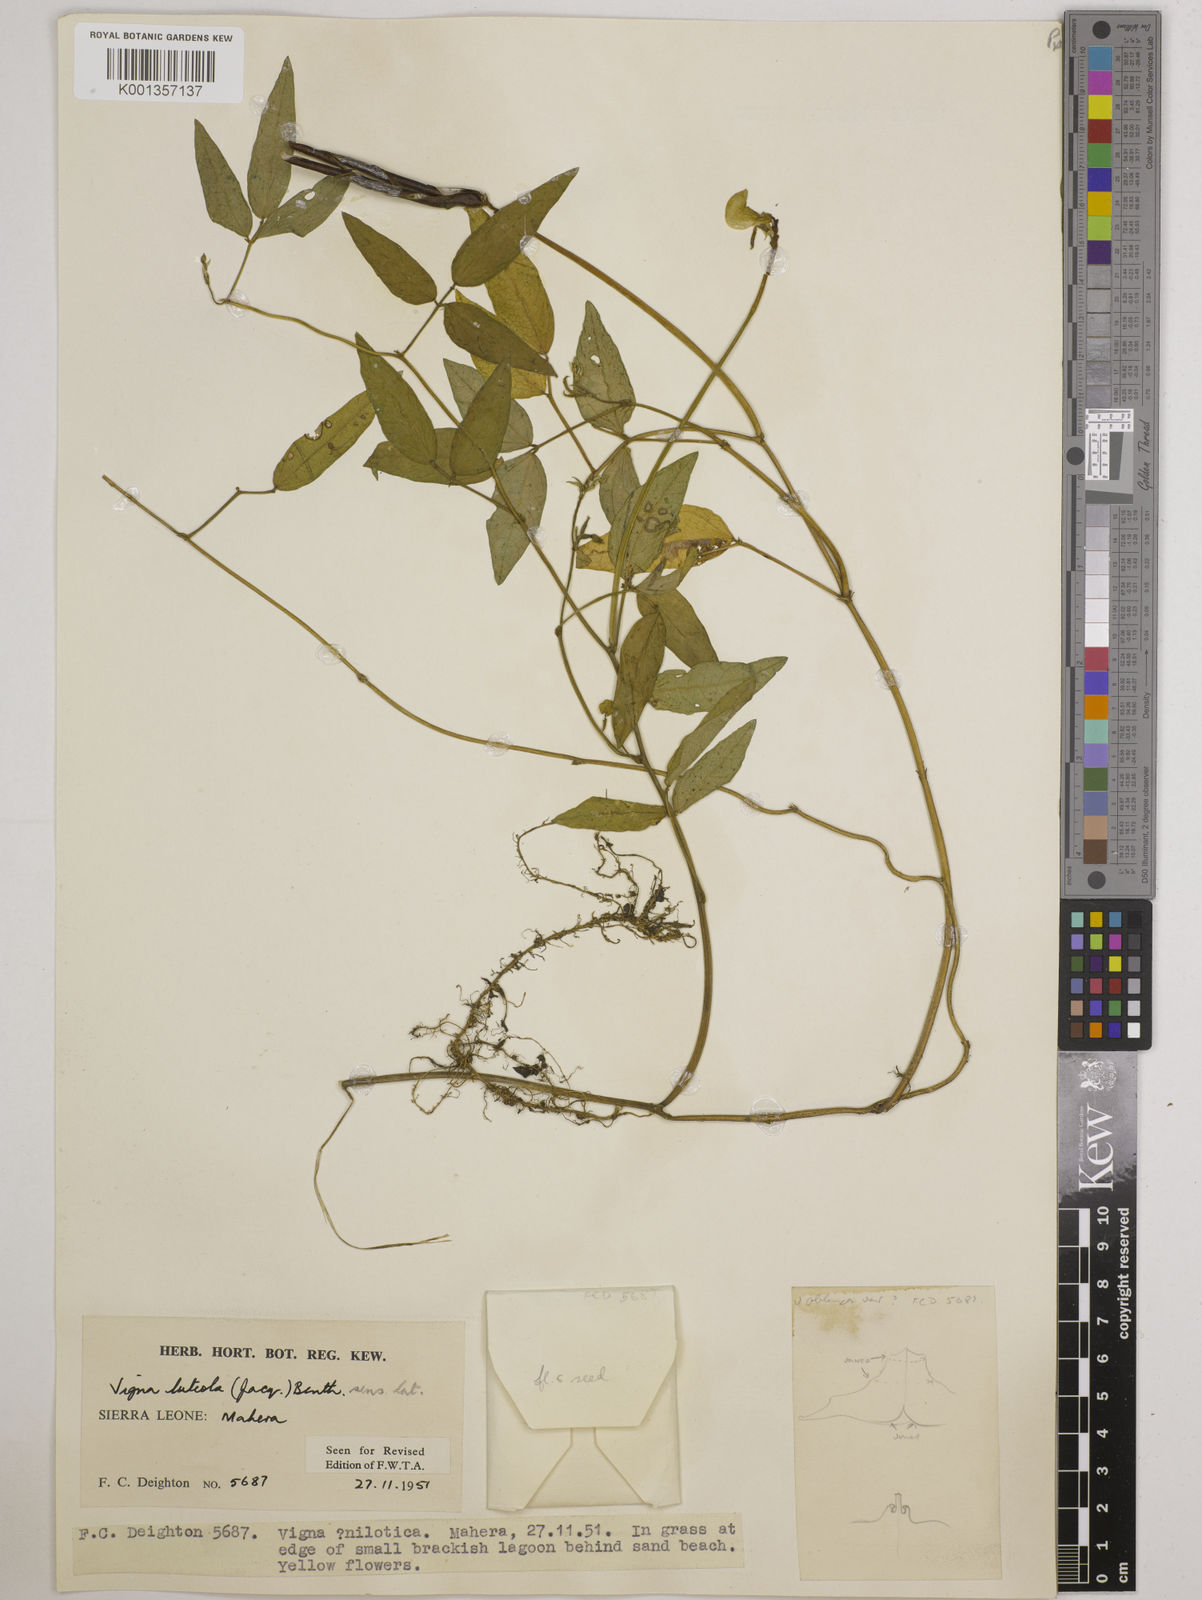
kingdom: Plantae
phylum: Tracheophyta
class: Magnoliopsida
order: Fabales
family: Fabaceae
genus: Vigna
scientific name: Vigna luteola
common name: Hairypod cowpea
